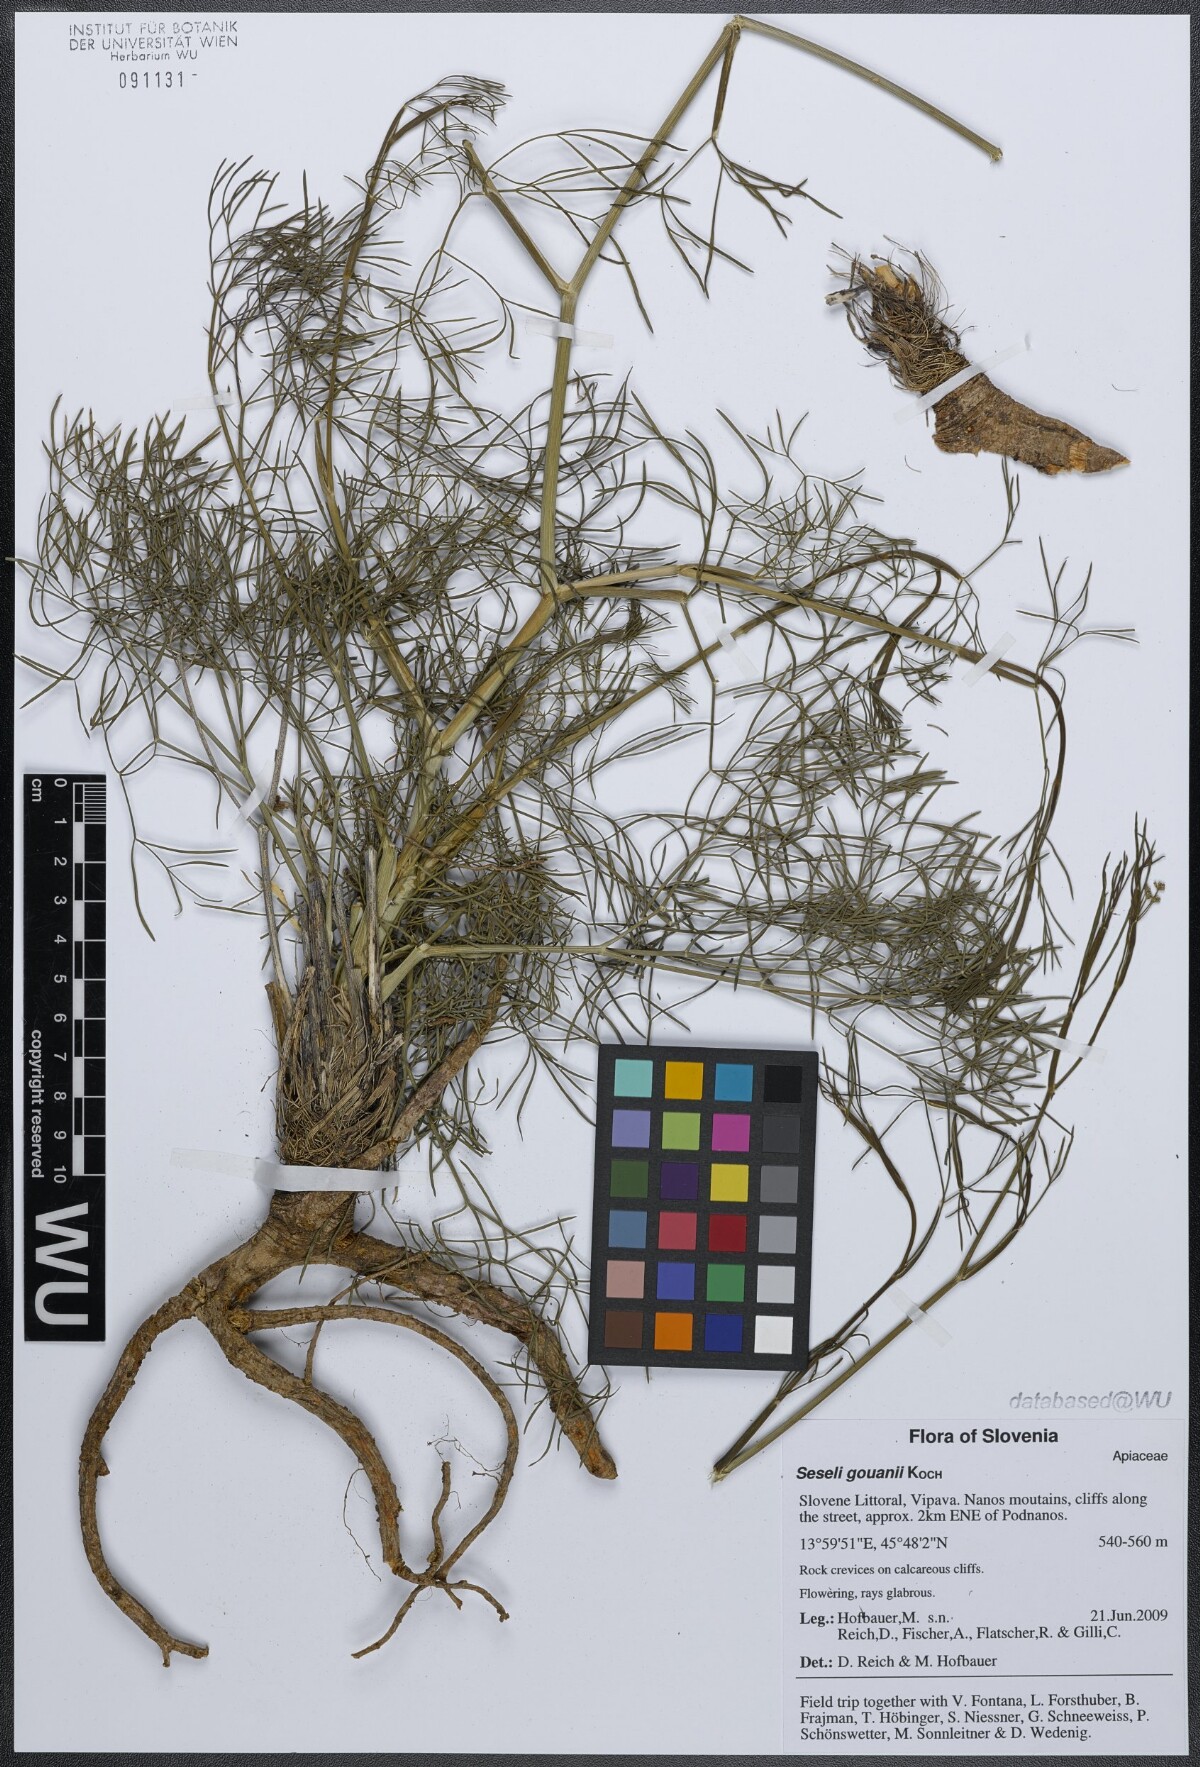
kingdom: Plantae
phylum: Tracheophyta
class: Magnoliopsida
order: Apiales
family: Apiaceae
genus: Seseli
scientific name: Seseli gouanii
